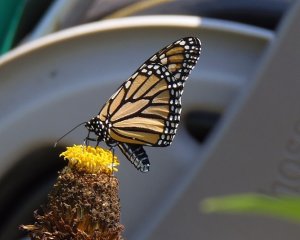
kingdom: Animalia
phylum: Arthropoda
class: Insecta
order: Lepidoptera
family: Nymphalidae
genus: Danaus
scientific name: Danaus plexippus
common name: Monarch
